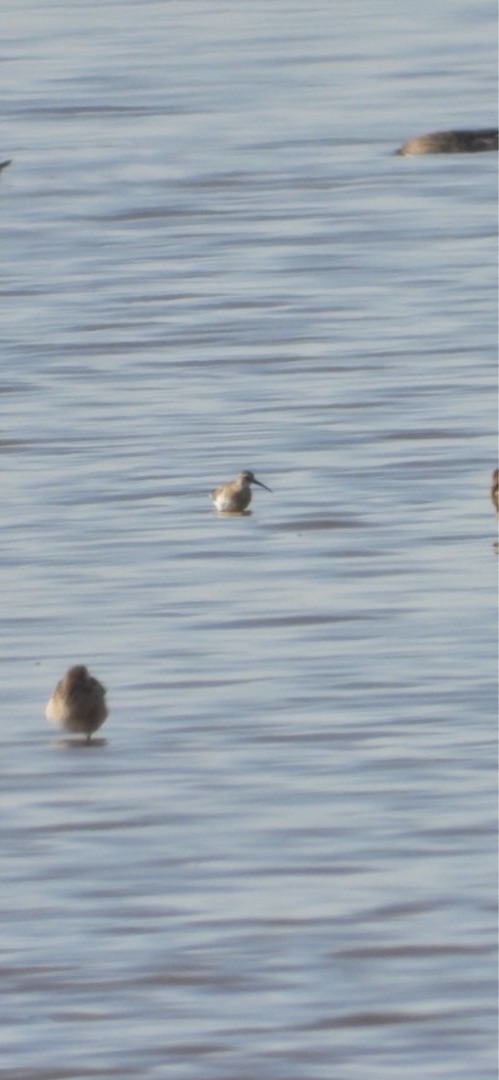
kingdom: Animalia
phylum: Chordata
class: Aves
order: Charadriiformes
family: Scolopacidae
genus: Calidris
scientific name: Calidris ferruginea
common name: Krumnæbbet ryle
